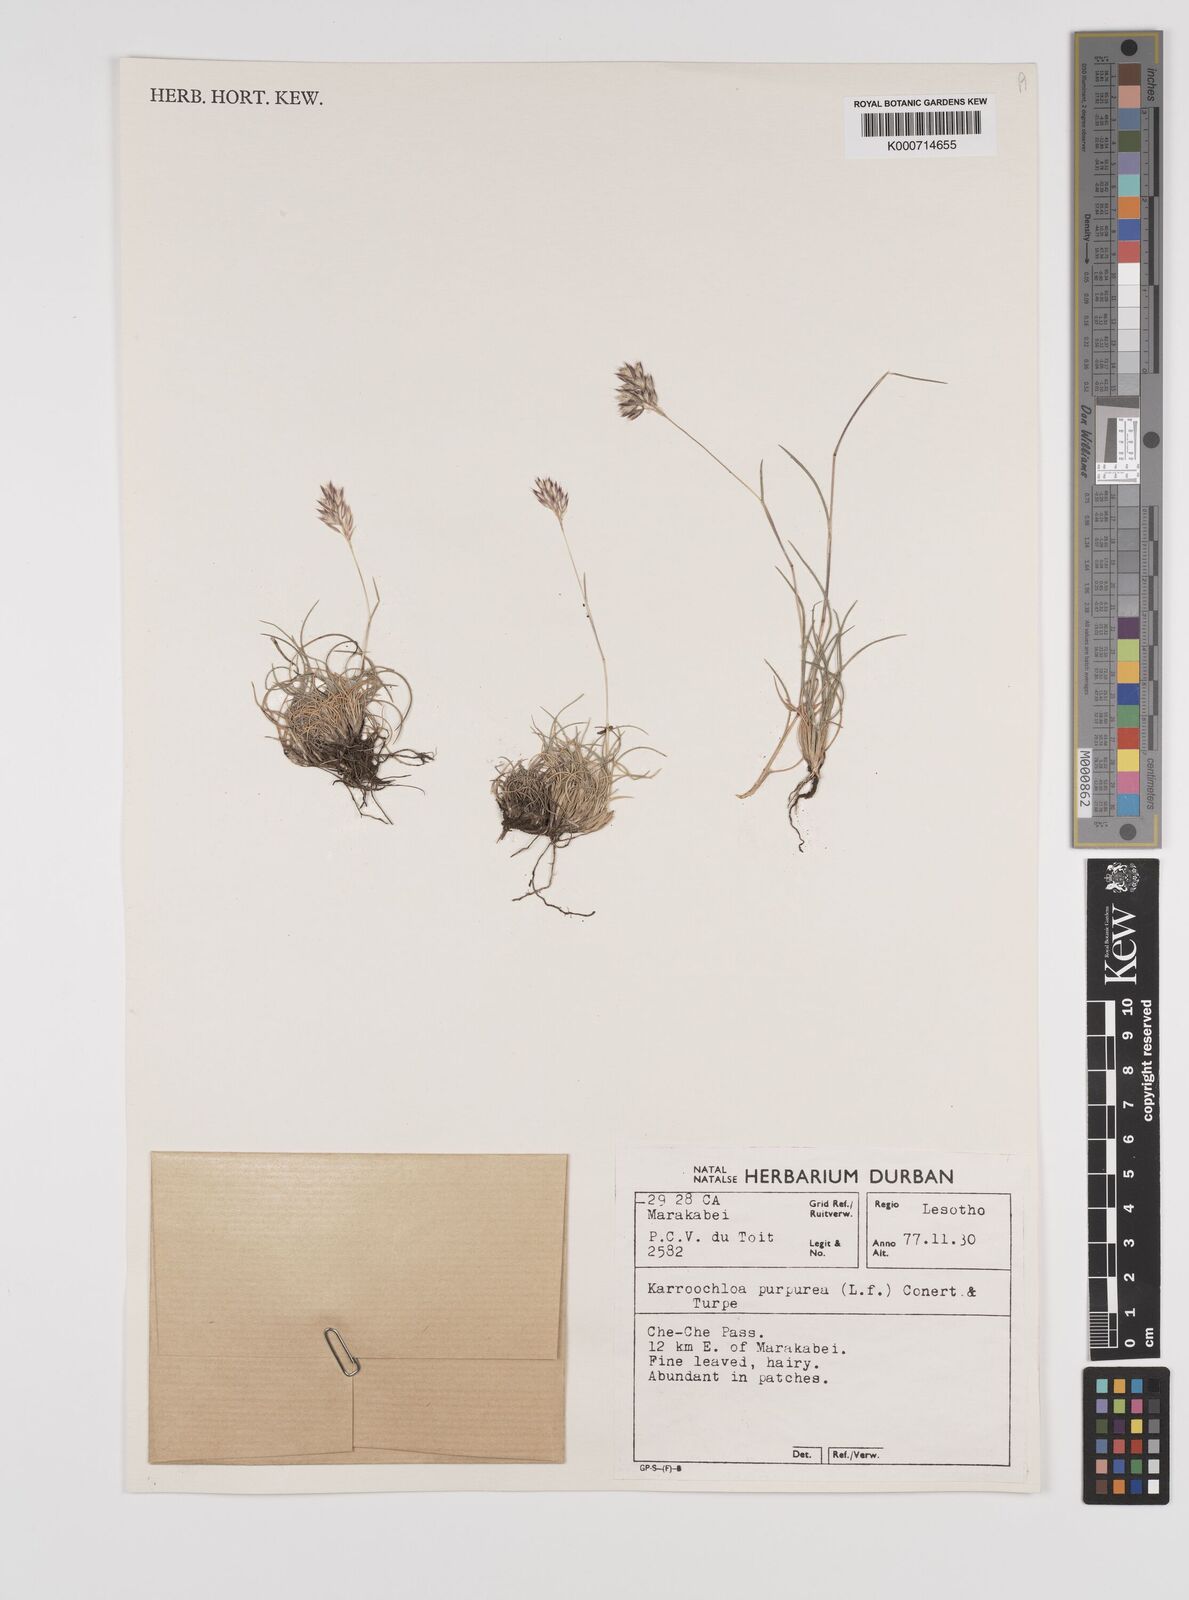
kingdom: Plantae
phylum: Tracheophyta
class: Liliopsida
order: Poales
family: Poaceae
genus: Rytidosperma
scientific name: Rytidosperma
